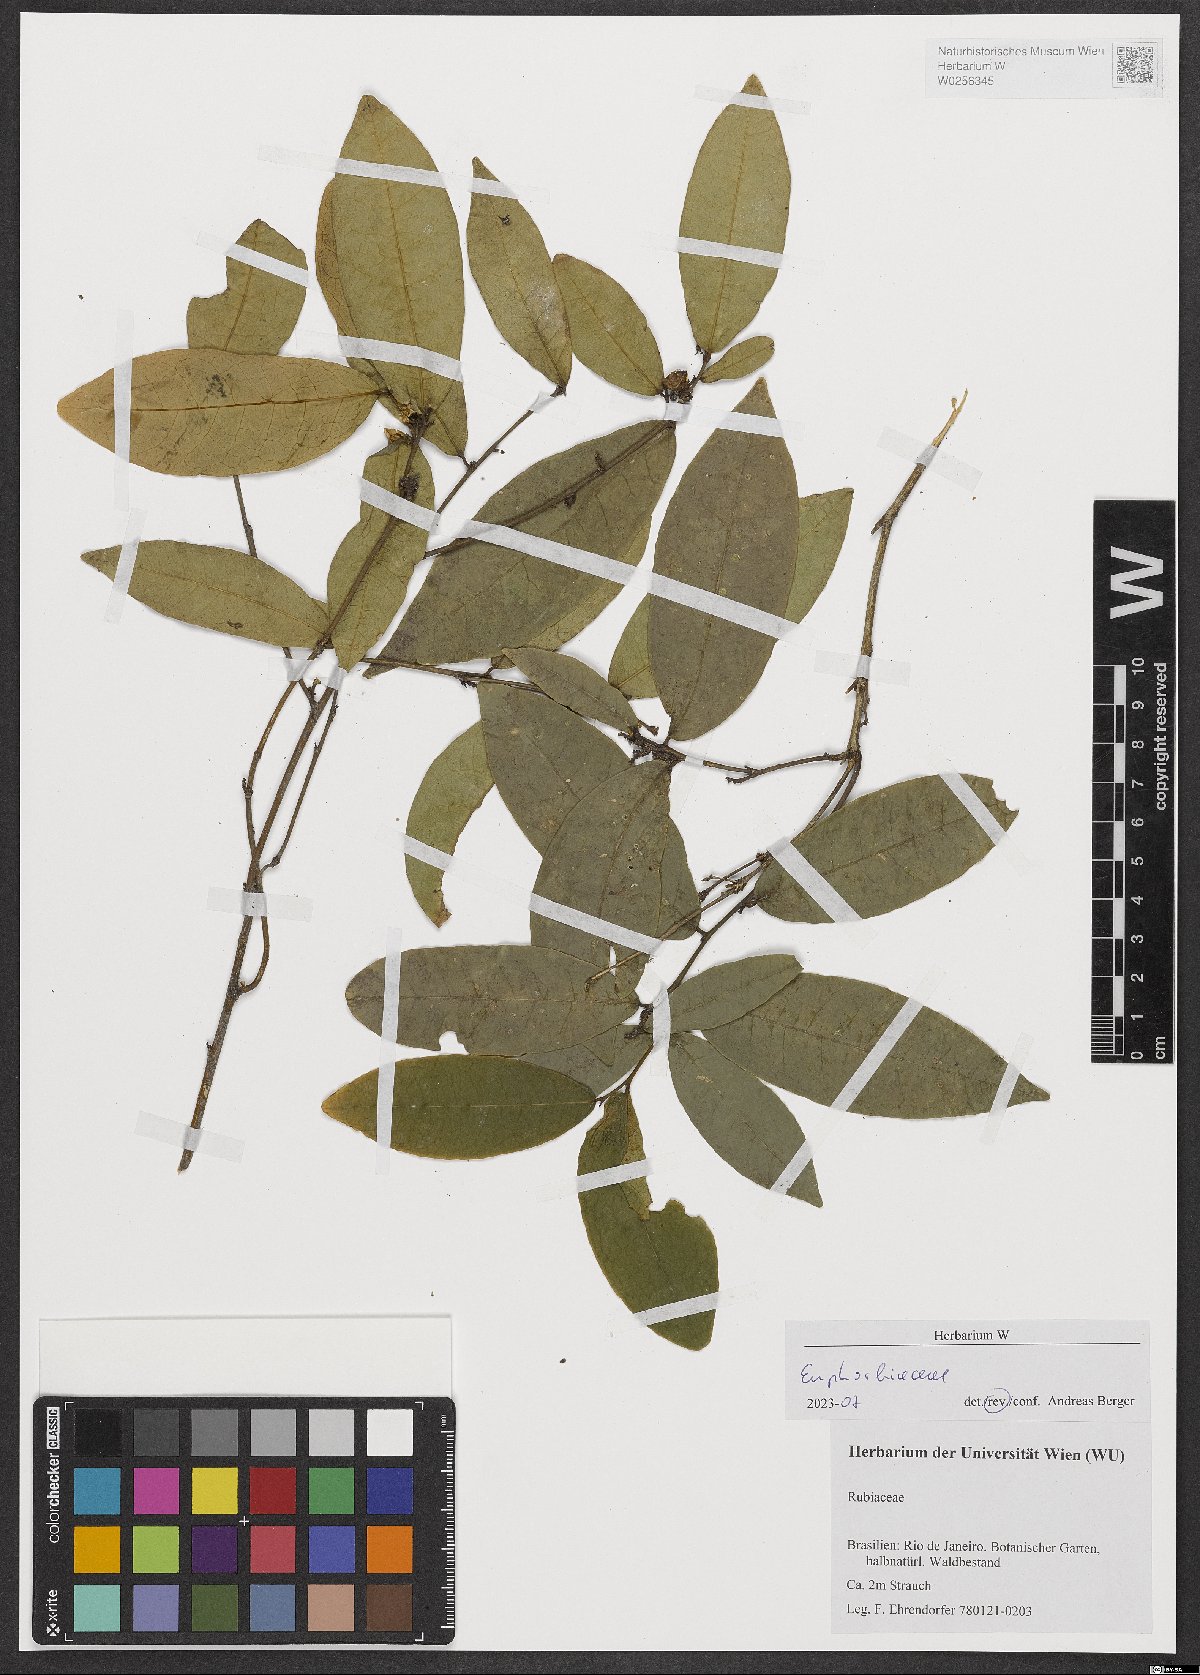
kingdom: Plantae
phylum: Tracheophyta
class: Magnoliopsida
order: Malpighiales
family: Euphorbiaceae
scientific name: Euphorbiaceae
